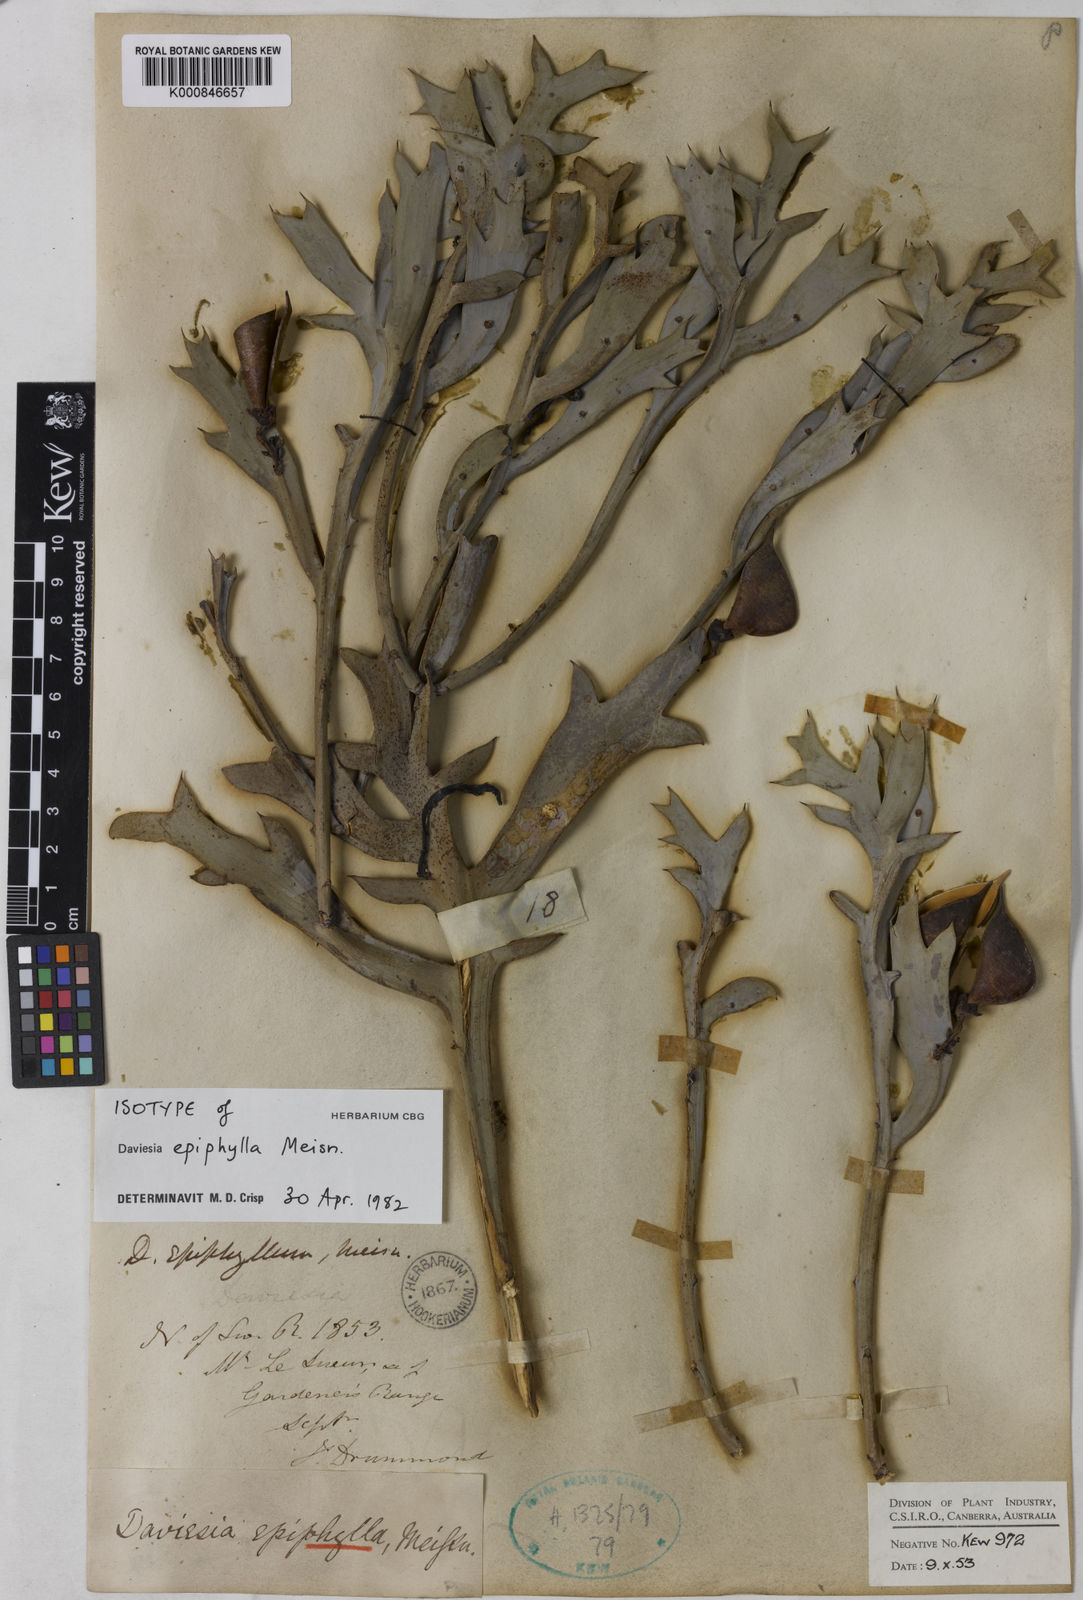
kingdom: Plantae
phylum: Tracheophyta
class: Magnoliopsida
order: Fabales
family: Fabaceae
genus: Daviesia
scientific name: Daviesia epiphyllum
